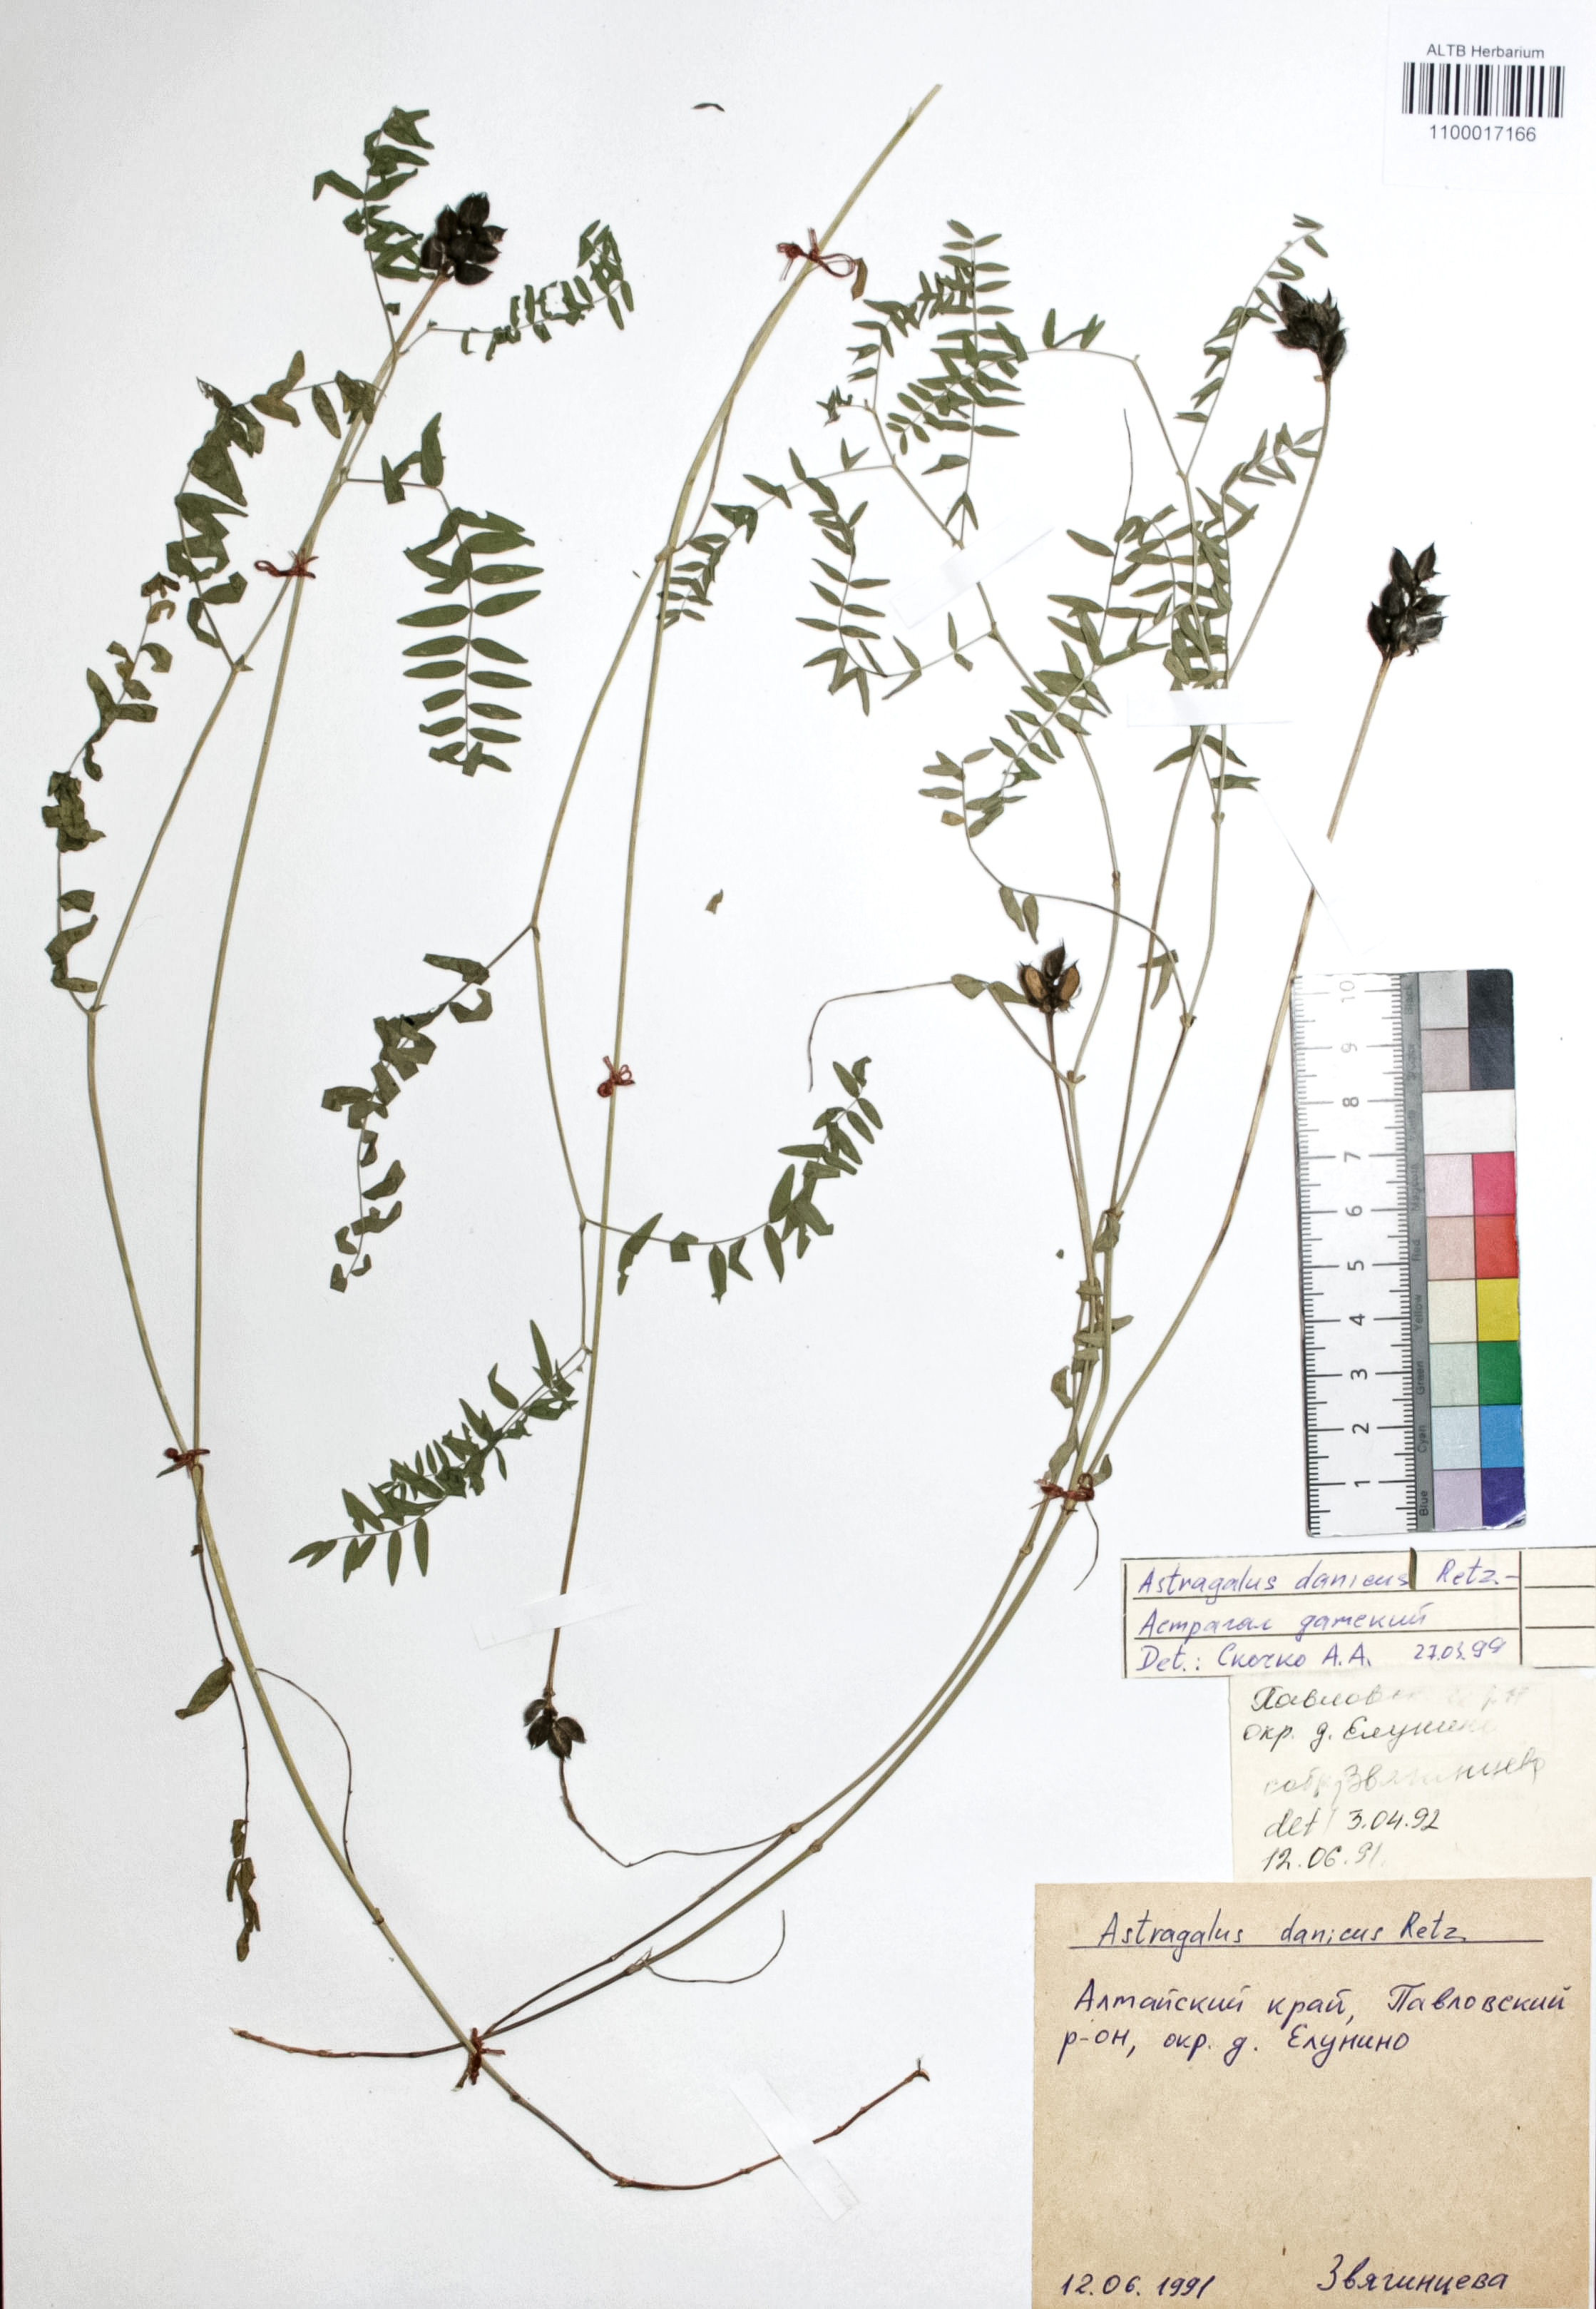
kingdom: Plantae
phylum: Tracheophyta
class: Magnoliopsida
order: Fabales
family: Fabaceae
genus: Astragalus
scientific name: Astragalus danicus
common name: Purple milk-vetch
